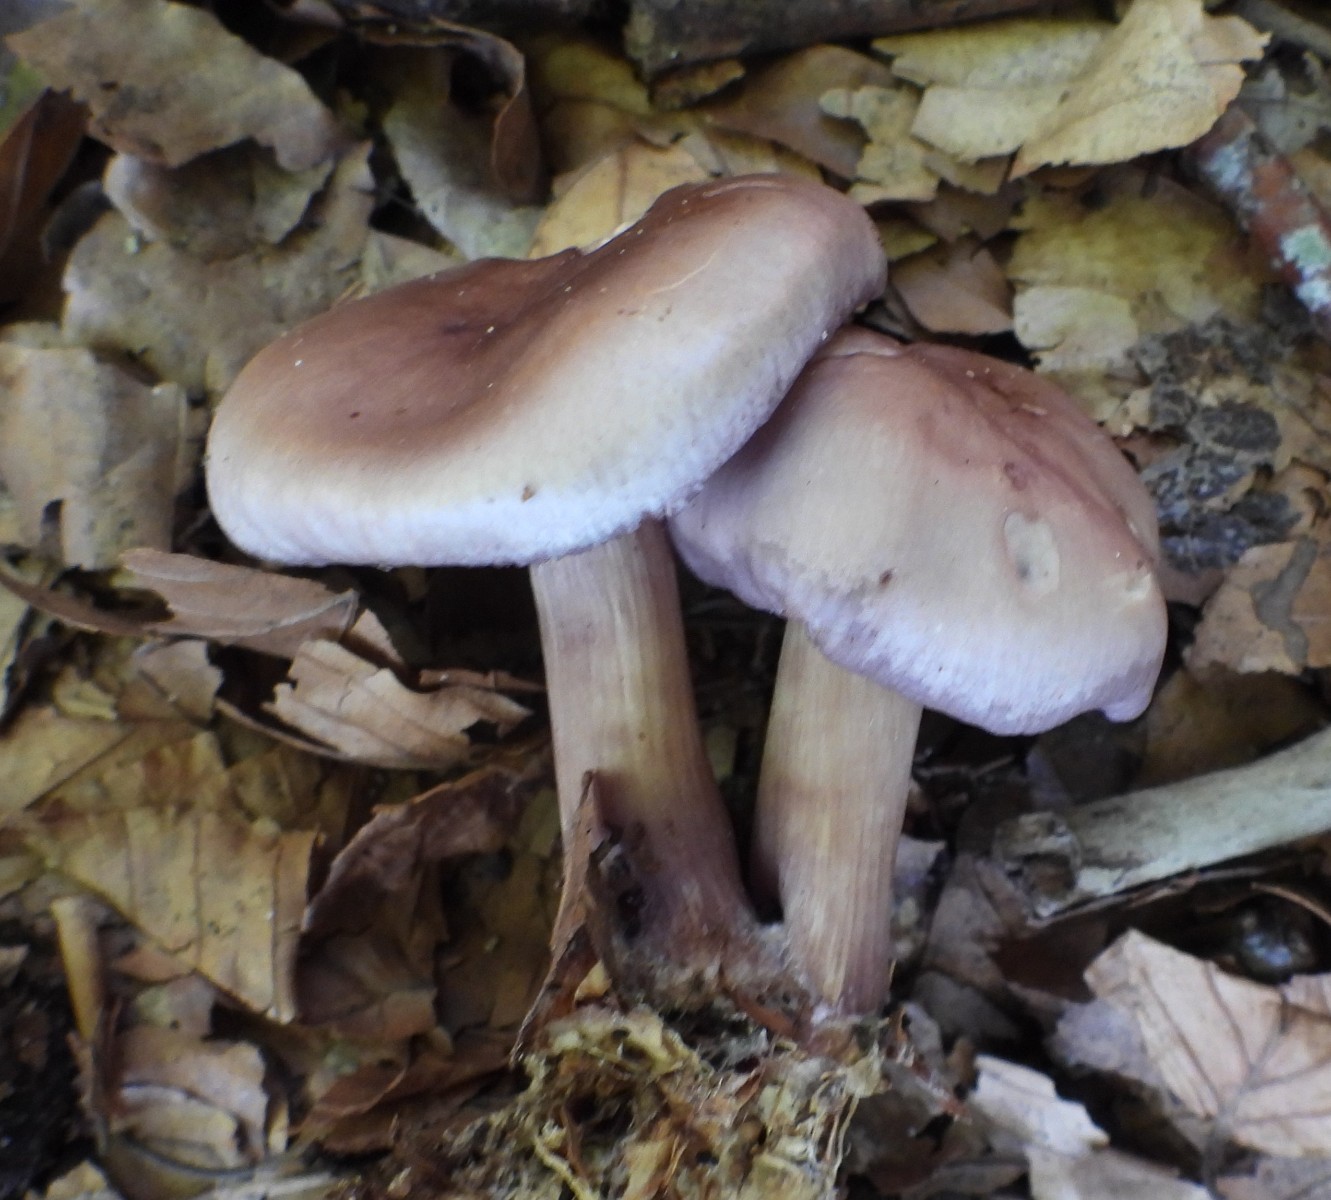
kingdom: Fungi
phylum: Basidiomycota
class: Agaricomycetes
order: Agaricales
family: Mycenaceae
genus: Mycena
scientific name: Mycena pelianthina
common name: mørkbladet huesvamp
